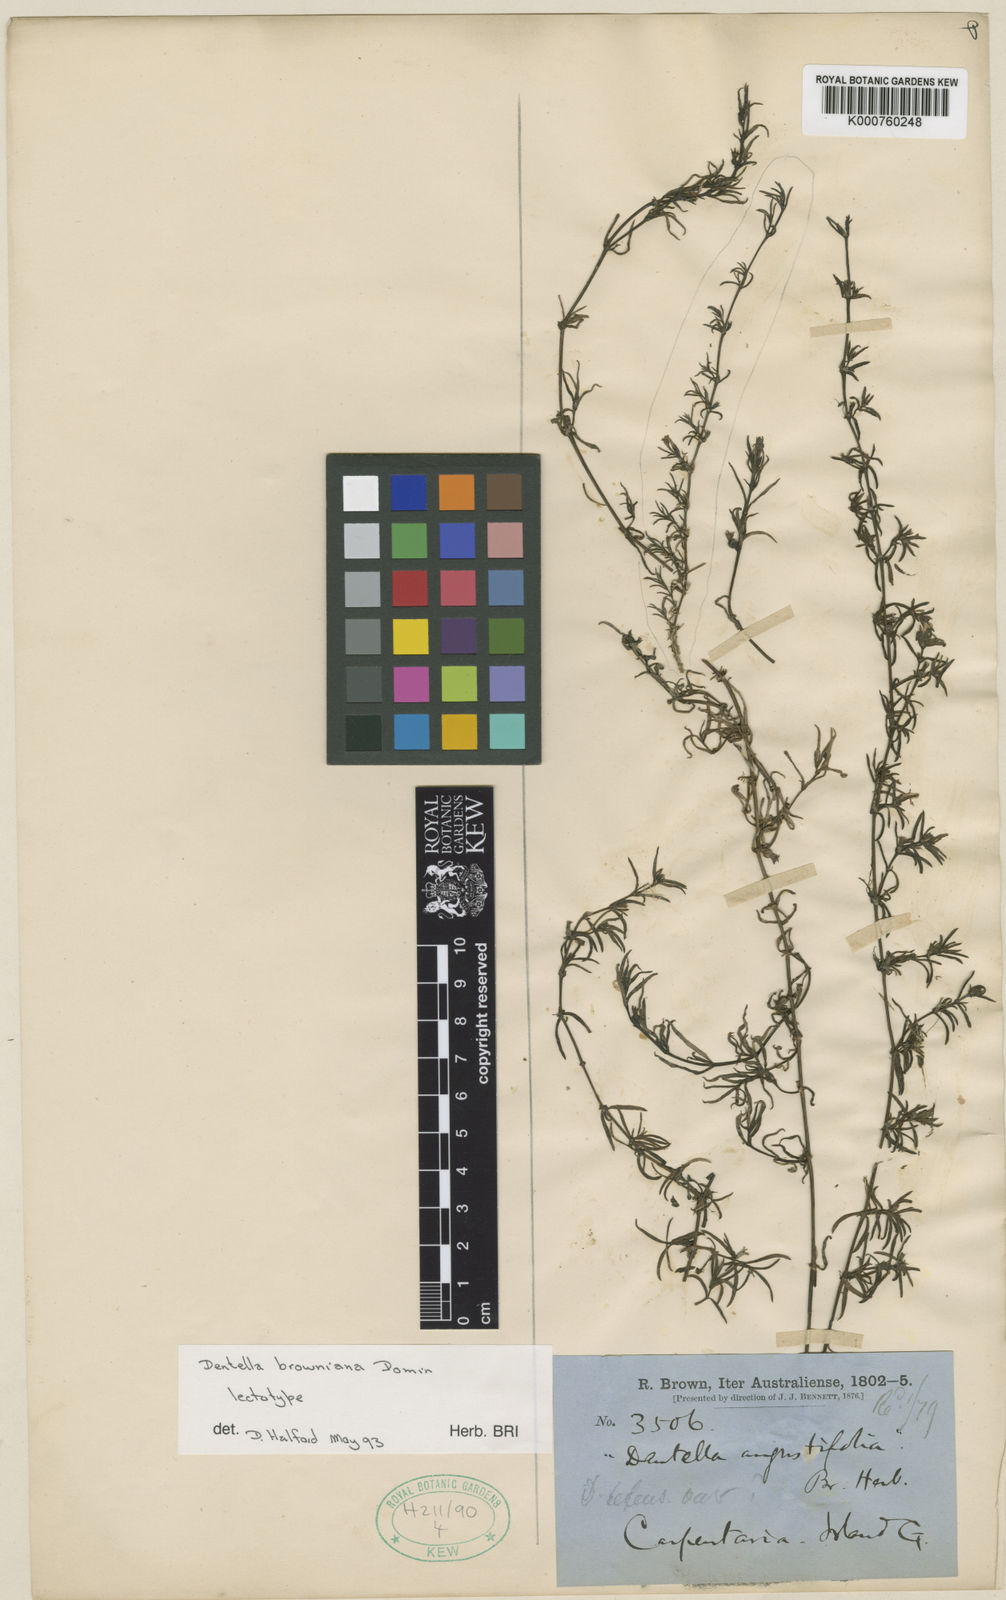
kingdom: Plantae
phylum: Tracheophyta
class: Magnoliopsida
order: Gentianales
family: Rubiaceae
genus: Dentella
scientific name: Dentella browniana
